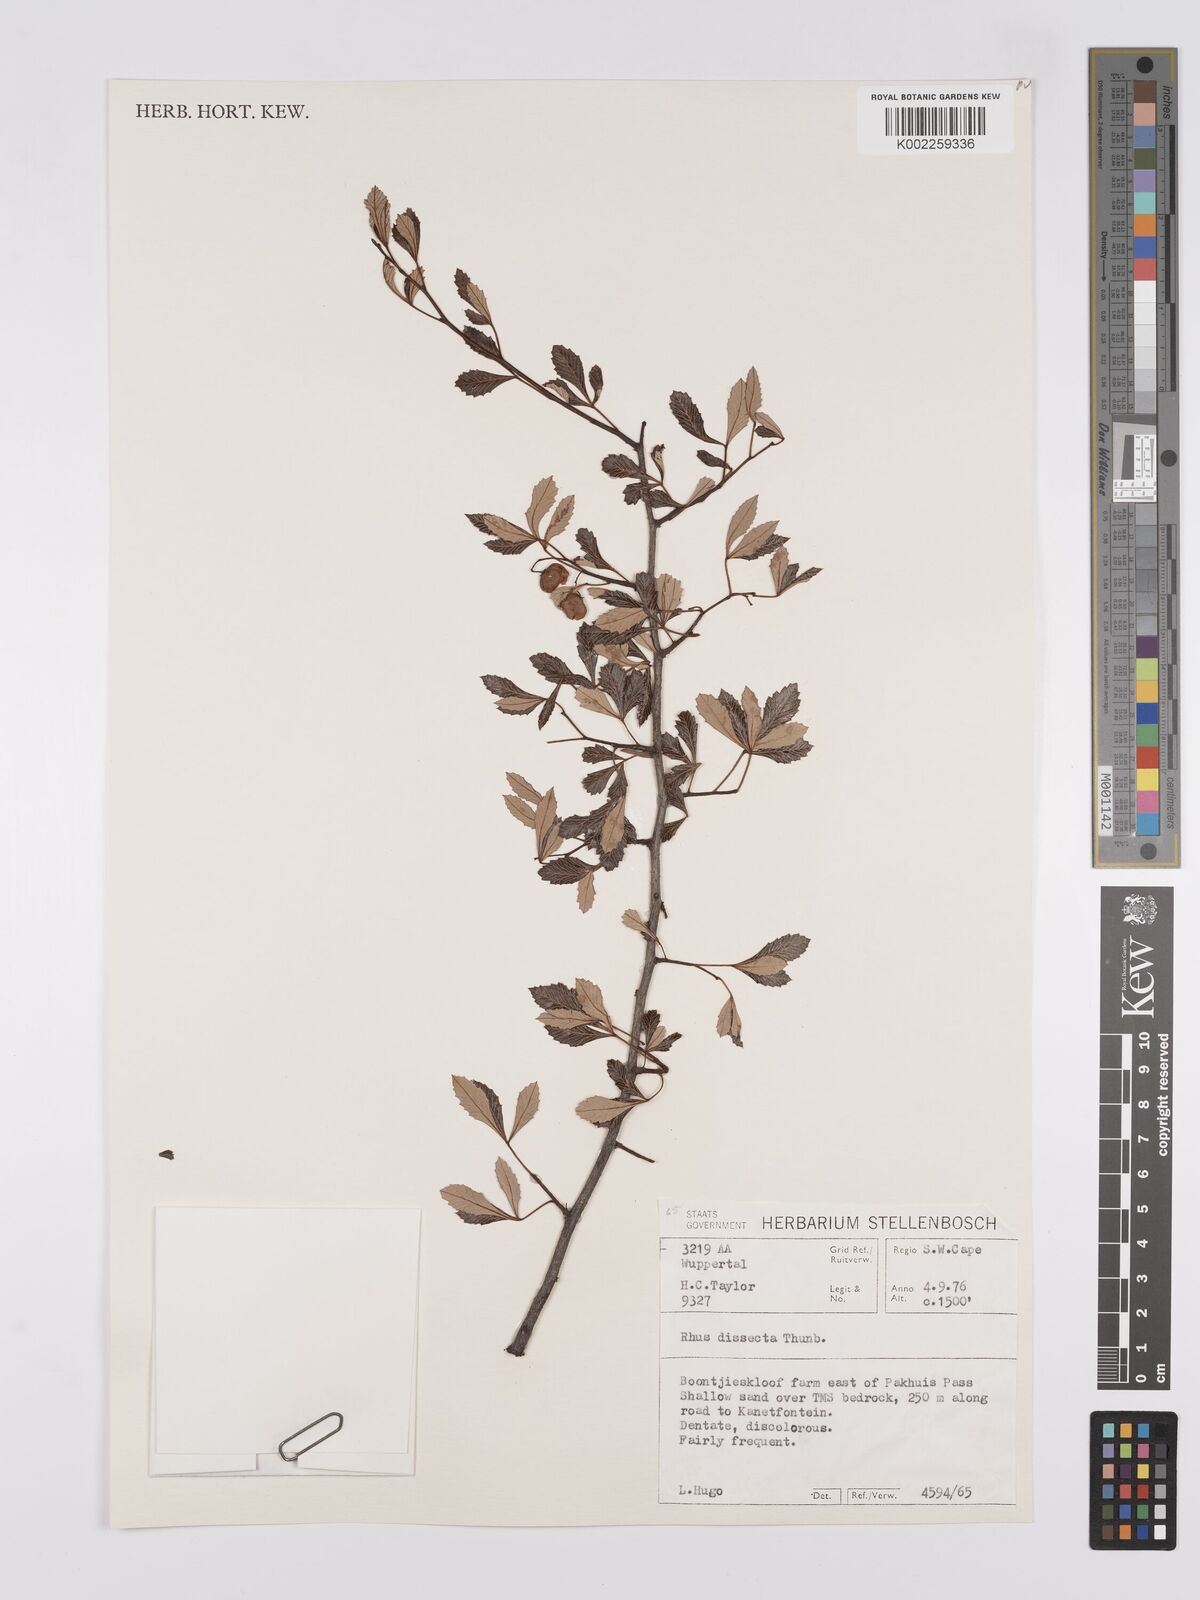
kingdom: Plantae
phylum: Tracheophyta
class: Magnoliopsida
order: Sapindales
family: Anacardiaceae
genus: Searsia
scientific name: Searsia dissecta
